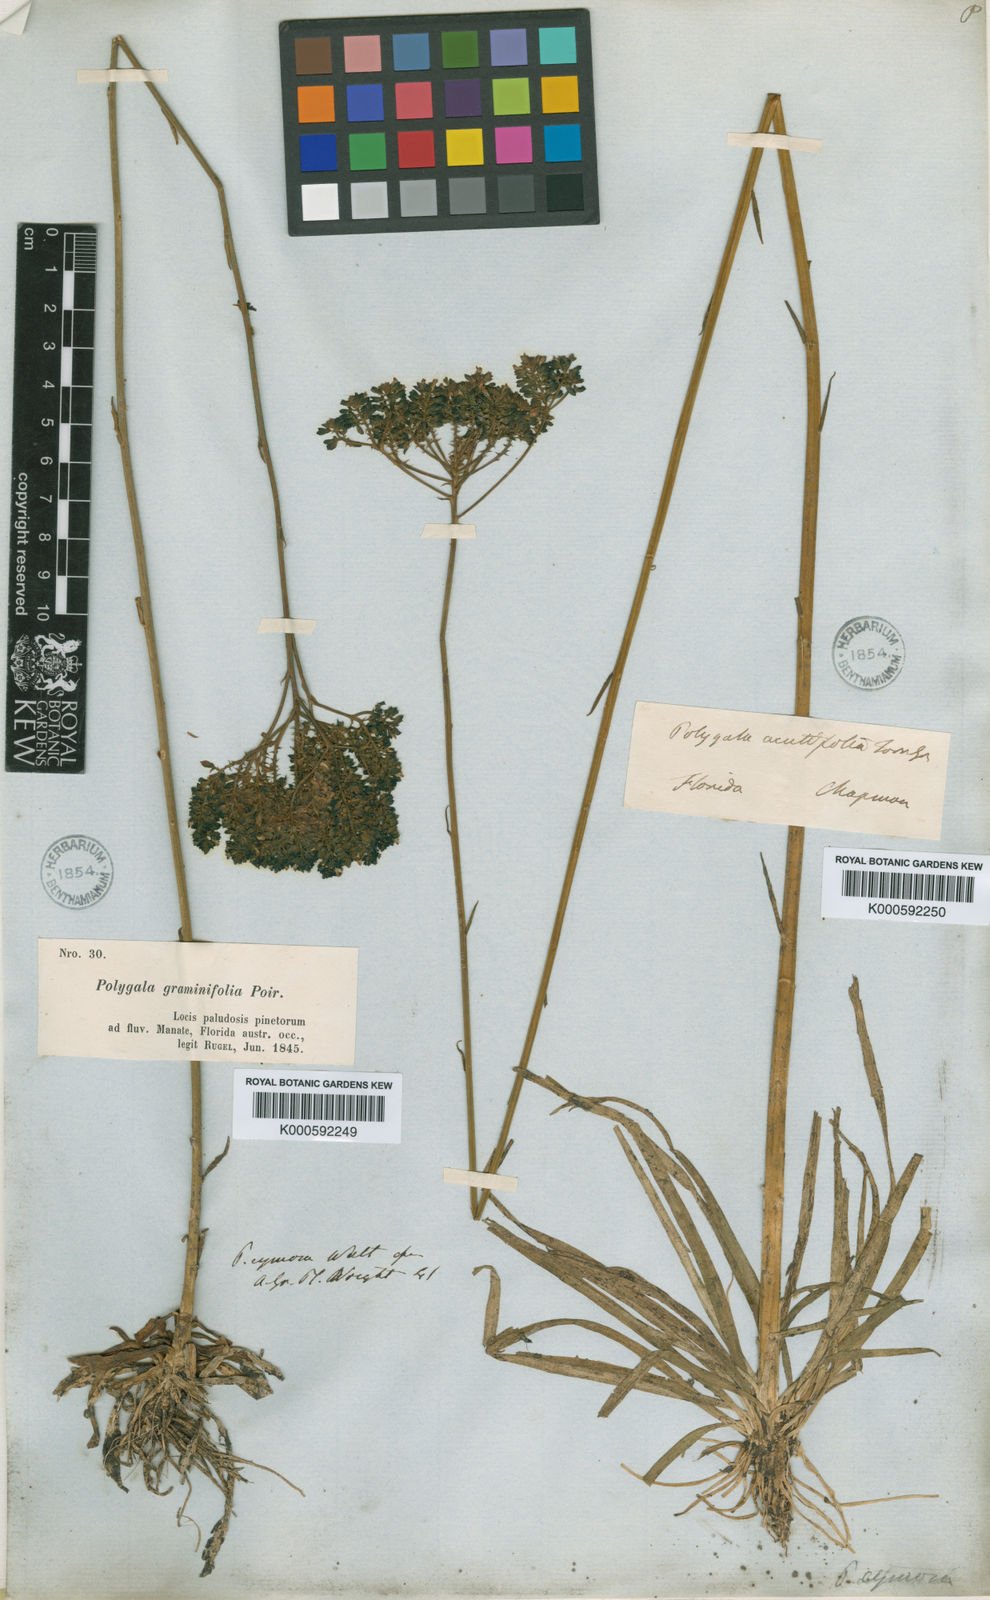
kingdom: Plantae
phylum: Tracheophyta
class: Magnoliopsida
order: Fabales
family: Polygalaceae
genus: Polygala
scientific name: Polygala cymosa
